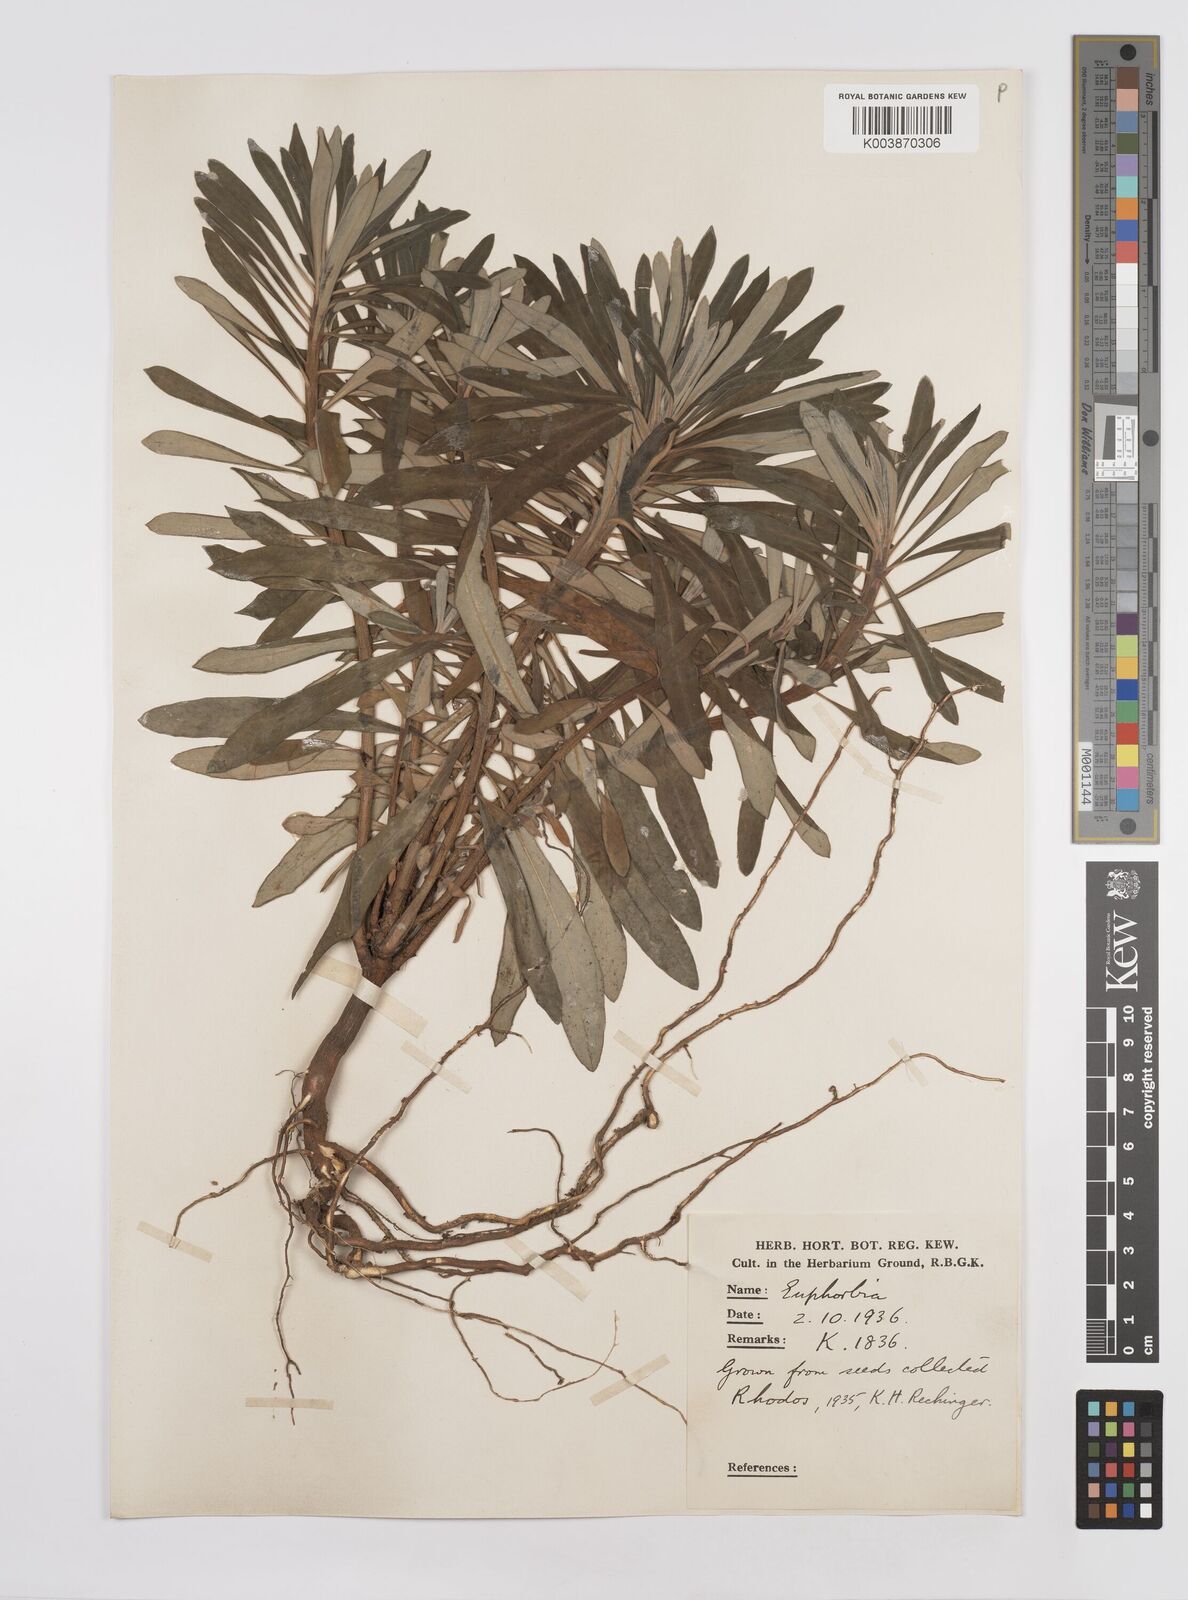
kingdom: Plantae
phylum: Tracheophyta
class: Magnoliopsida
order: Malpighiales
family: Euphorbiaceae
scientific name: Euphorbiaceae
